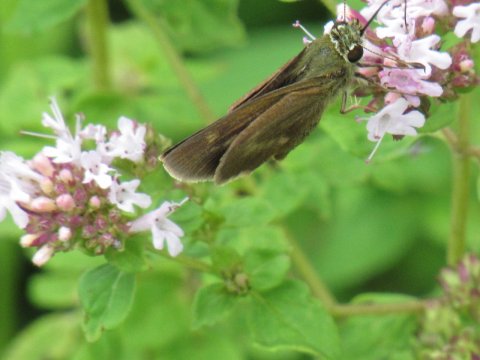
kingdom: Animalia
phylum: Arthropoda
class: Insecta
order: Lepidoptera
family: Hesperiidae
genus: Polites
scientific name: Polites egeremet
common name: Northern Broken-Dash
